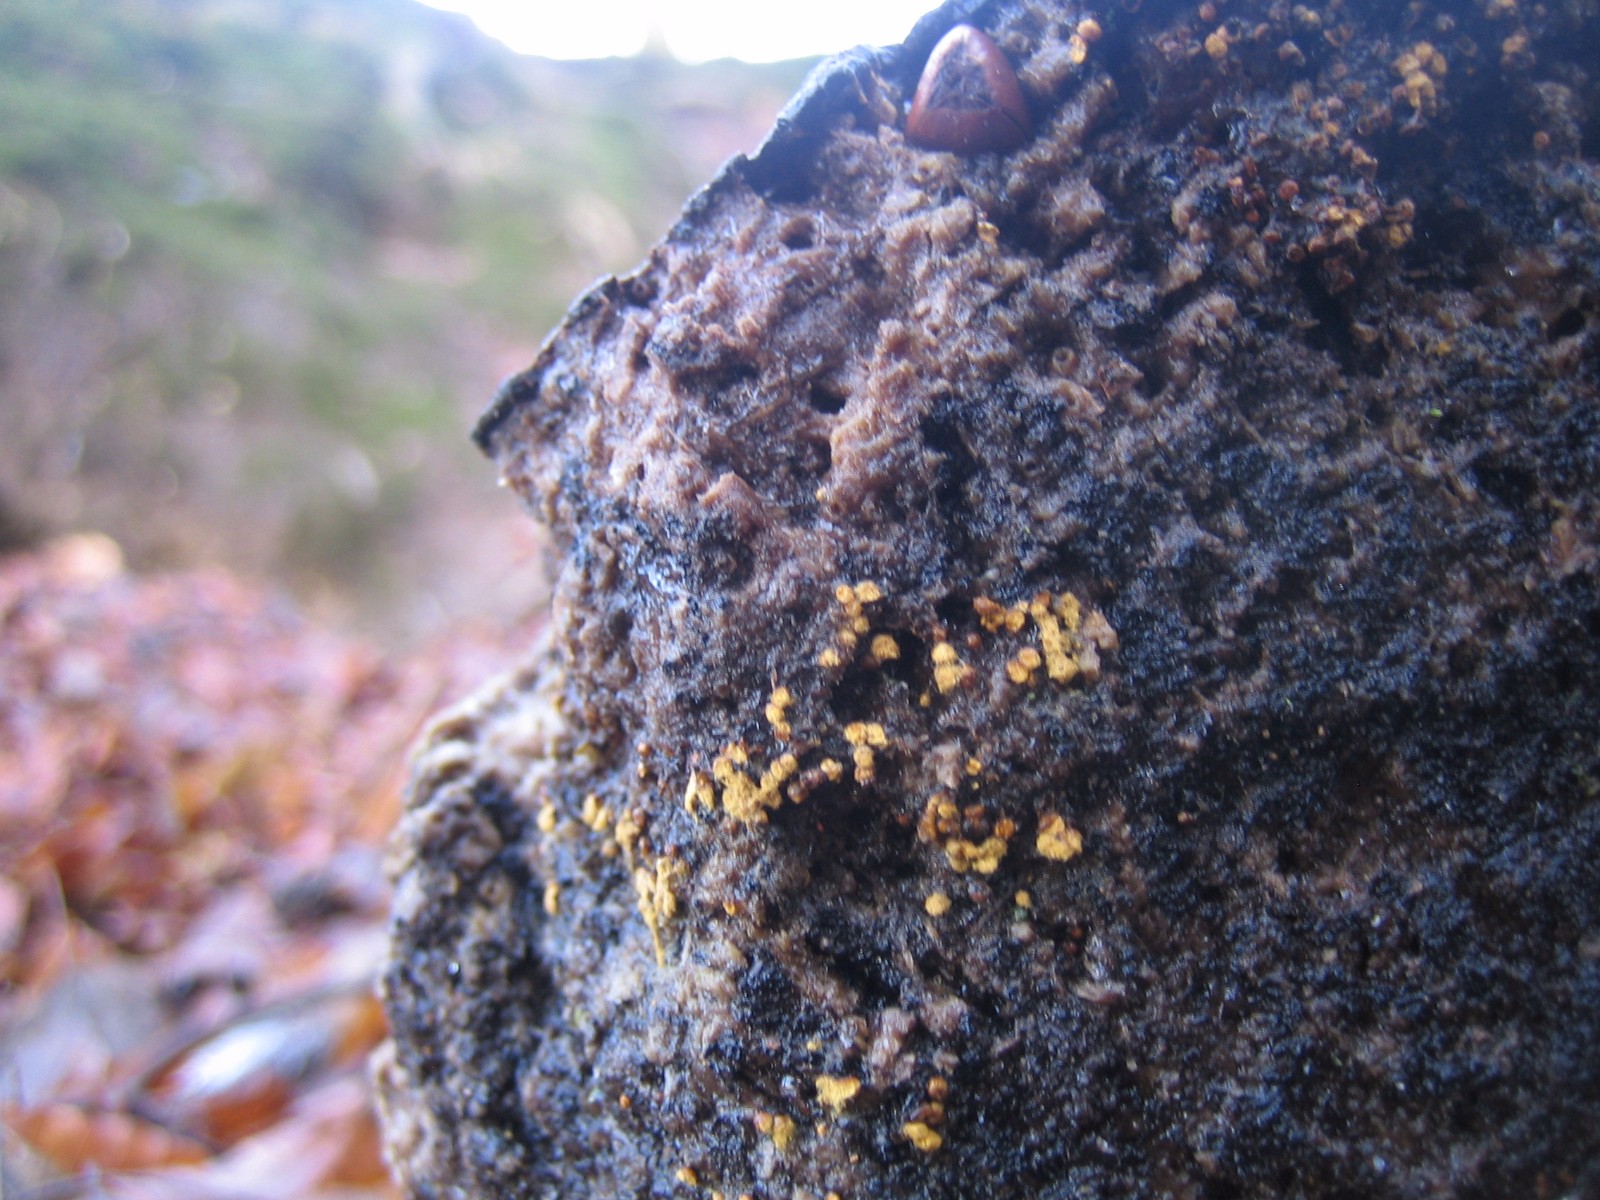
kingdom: Protozoa
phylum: Mycetozoa
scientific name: Mycetozoa
